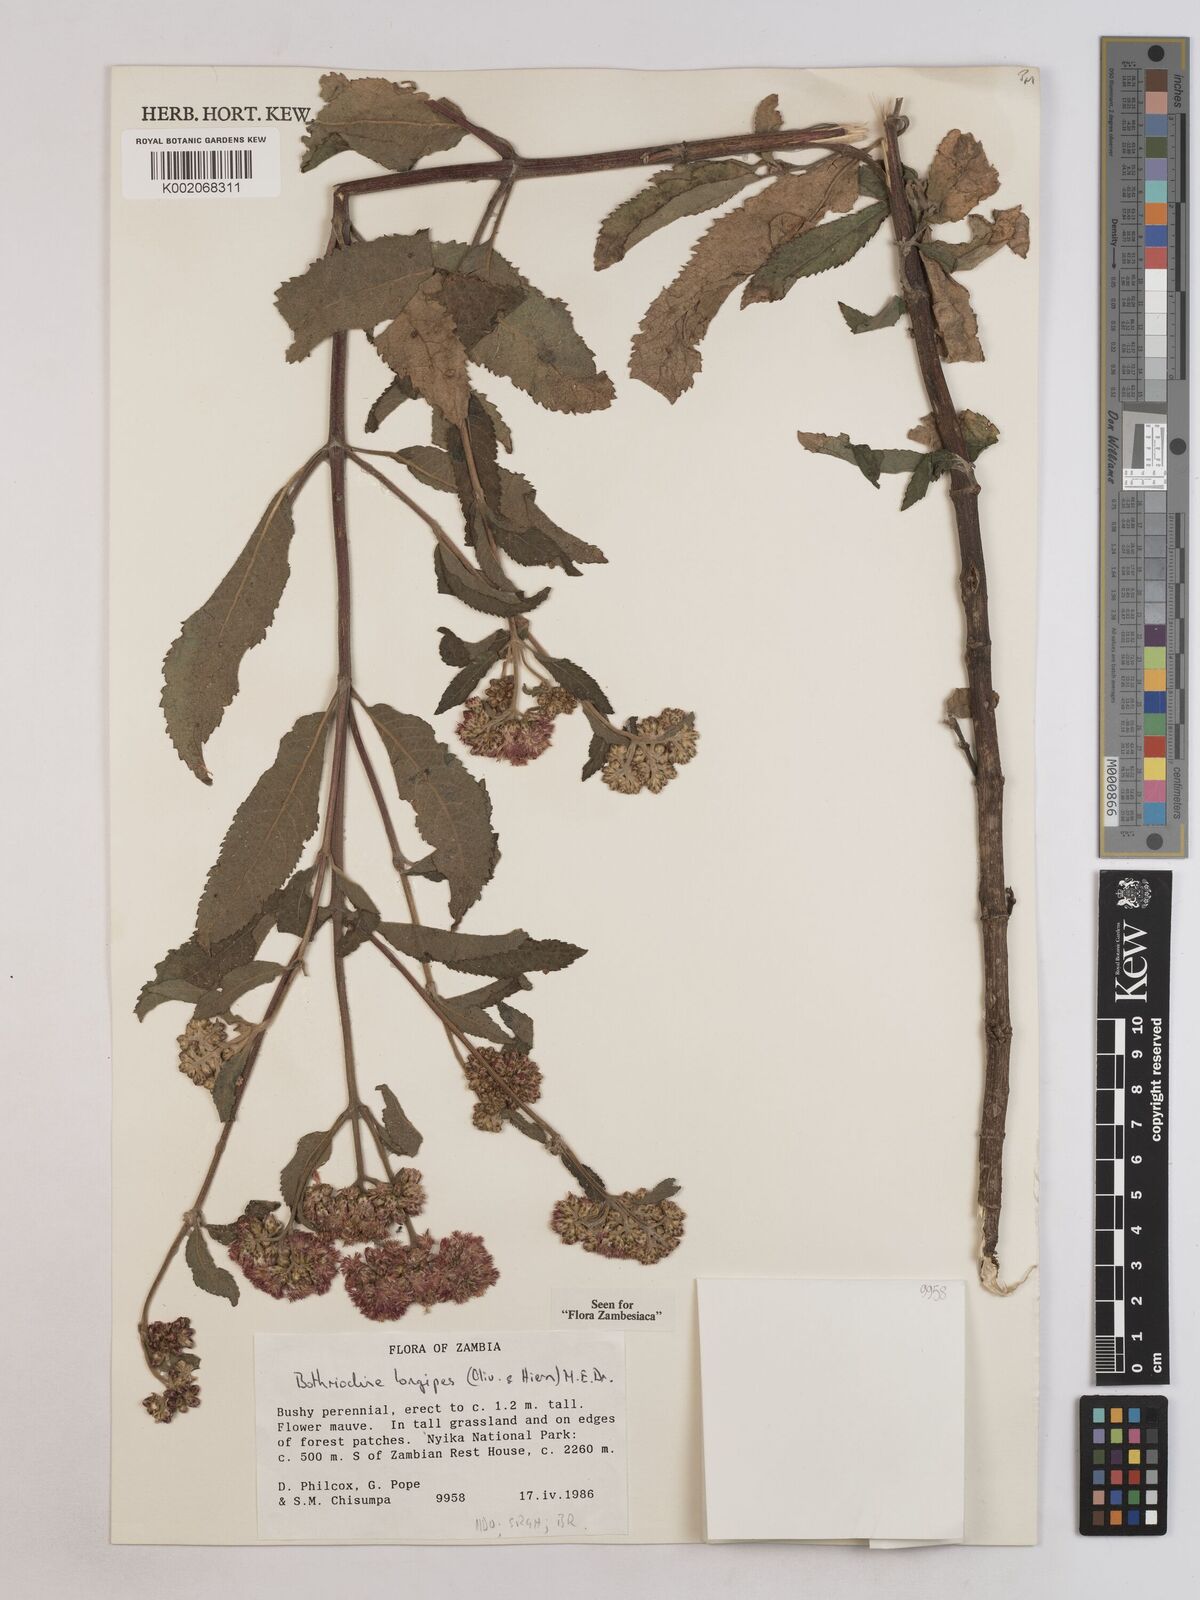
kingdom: Plantae
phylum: Tracheophyta
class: Magnoliopsida
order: Asterales
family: Asteraceae
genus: Bothriocline
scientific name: Bothriocline longipes
